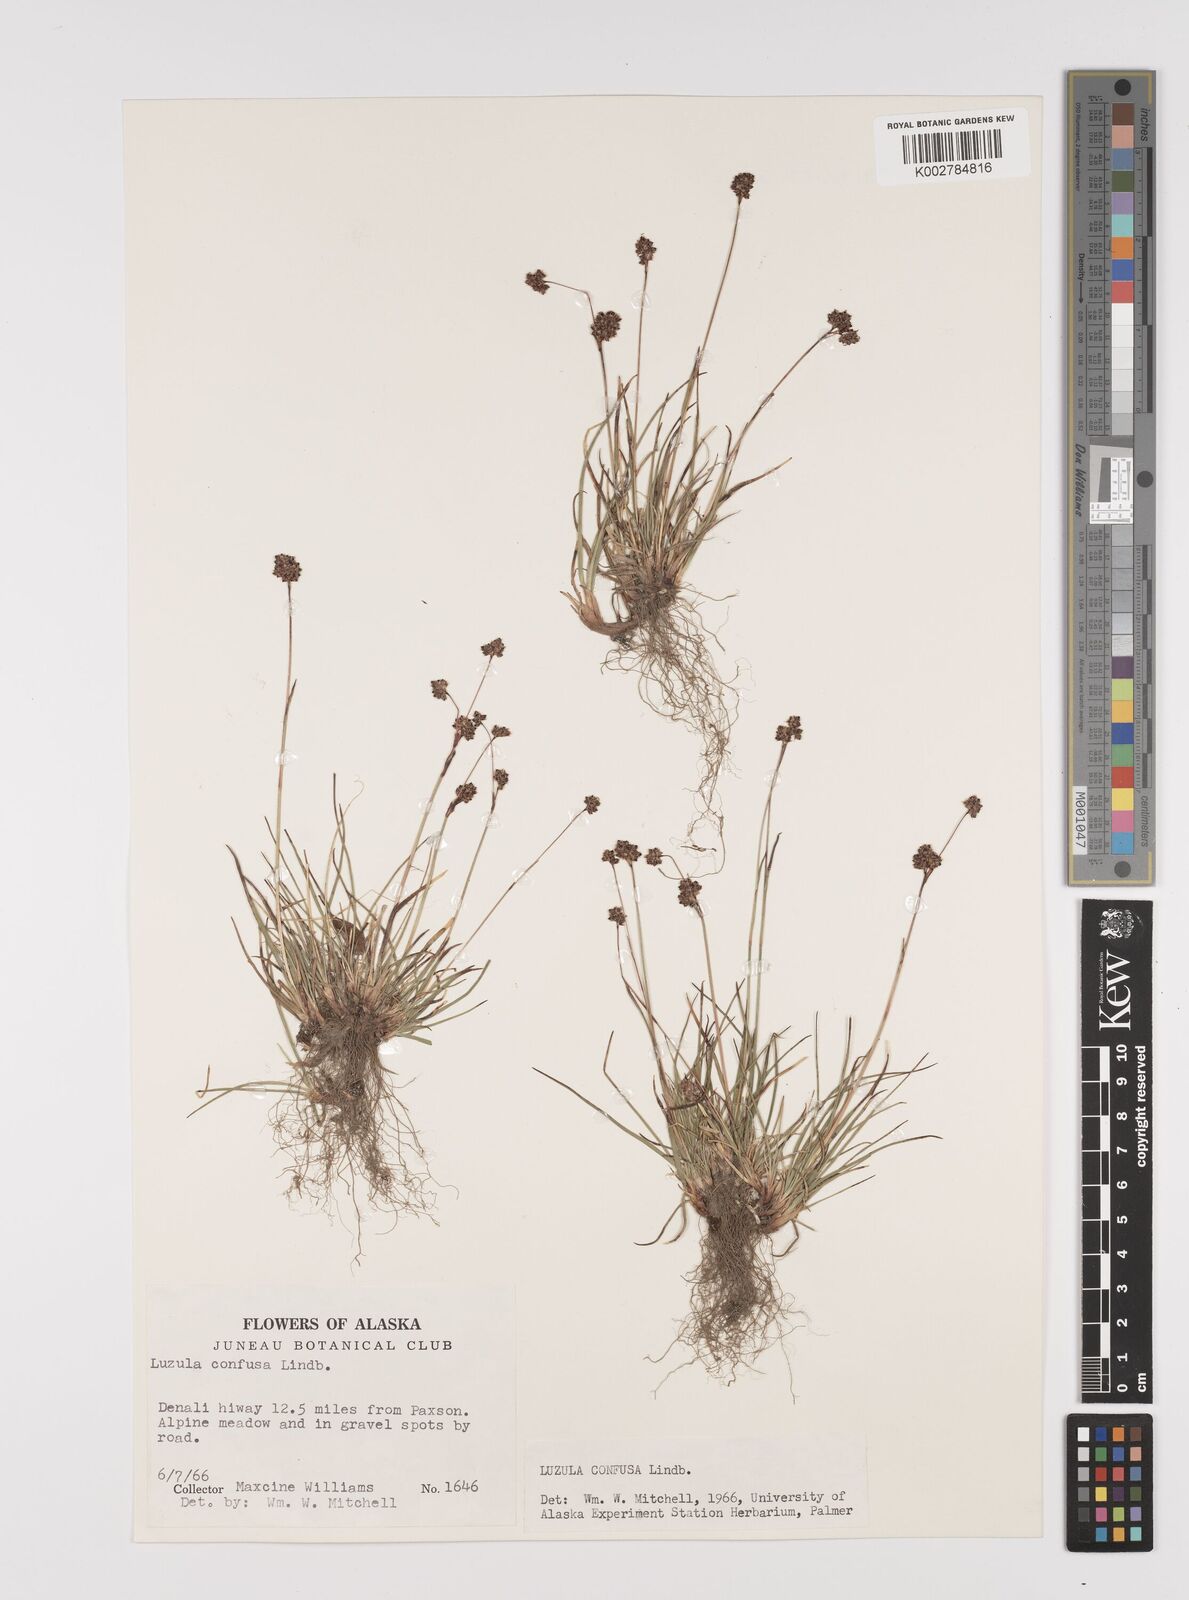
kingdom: Plantae
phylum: Tracheophyta
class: Liliopsida
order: Poales
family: Juncaceae
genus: Luzula
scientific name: Luzula confusa
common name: Northern wood rush
